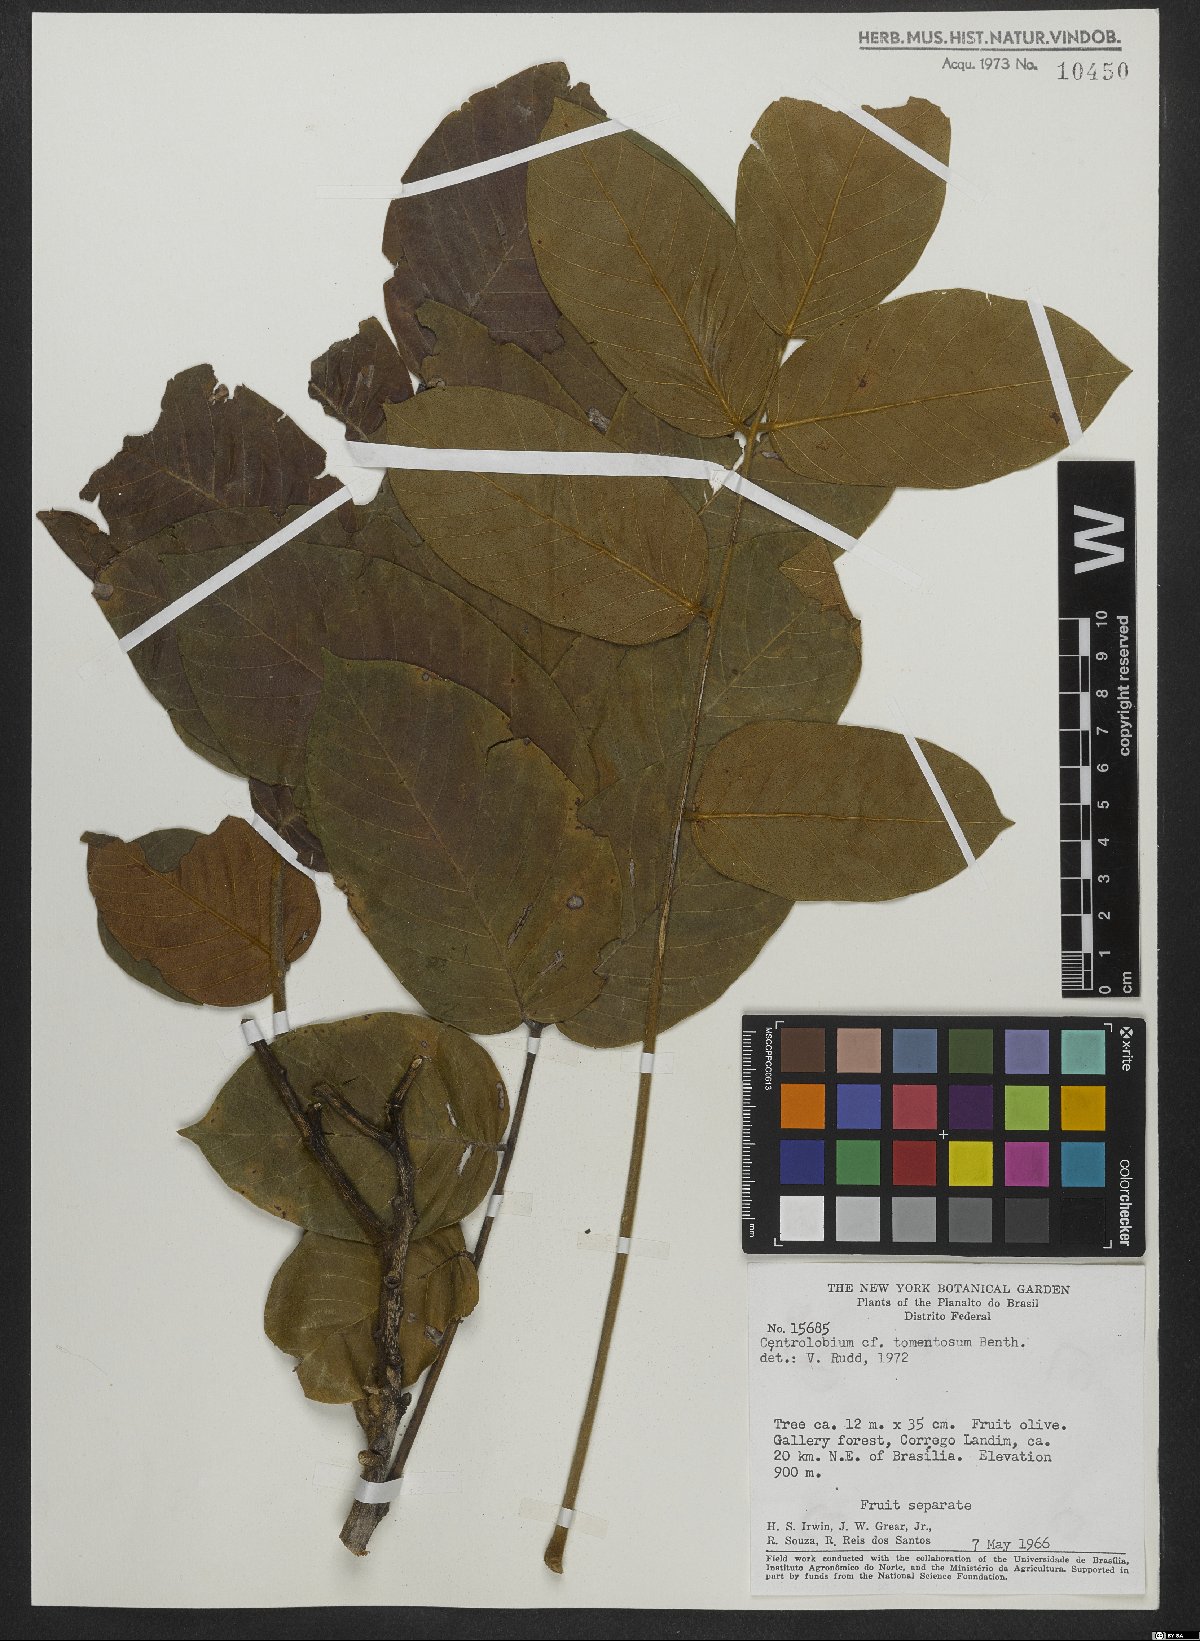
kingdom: Plantae
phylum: Tracheophyta
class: Magnoliopsida
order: Fabales
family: Fabaceae
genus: Centrolobium
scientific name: Centrolobium tomentosum
